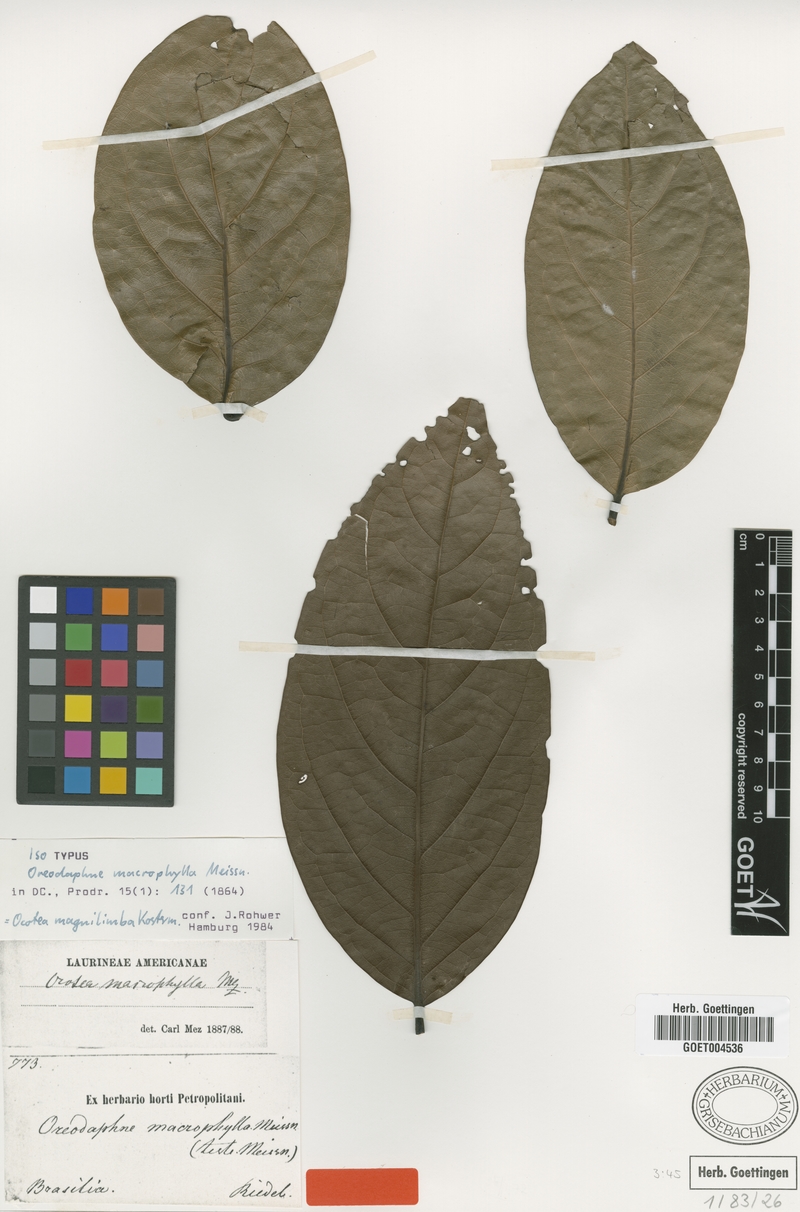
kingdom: Plantae
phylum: Tracheophyta
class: Magnoliopsida
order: Laurales
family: Lauraceae
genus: Ocotea
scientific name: Ocotea magnilimba
